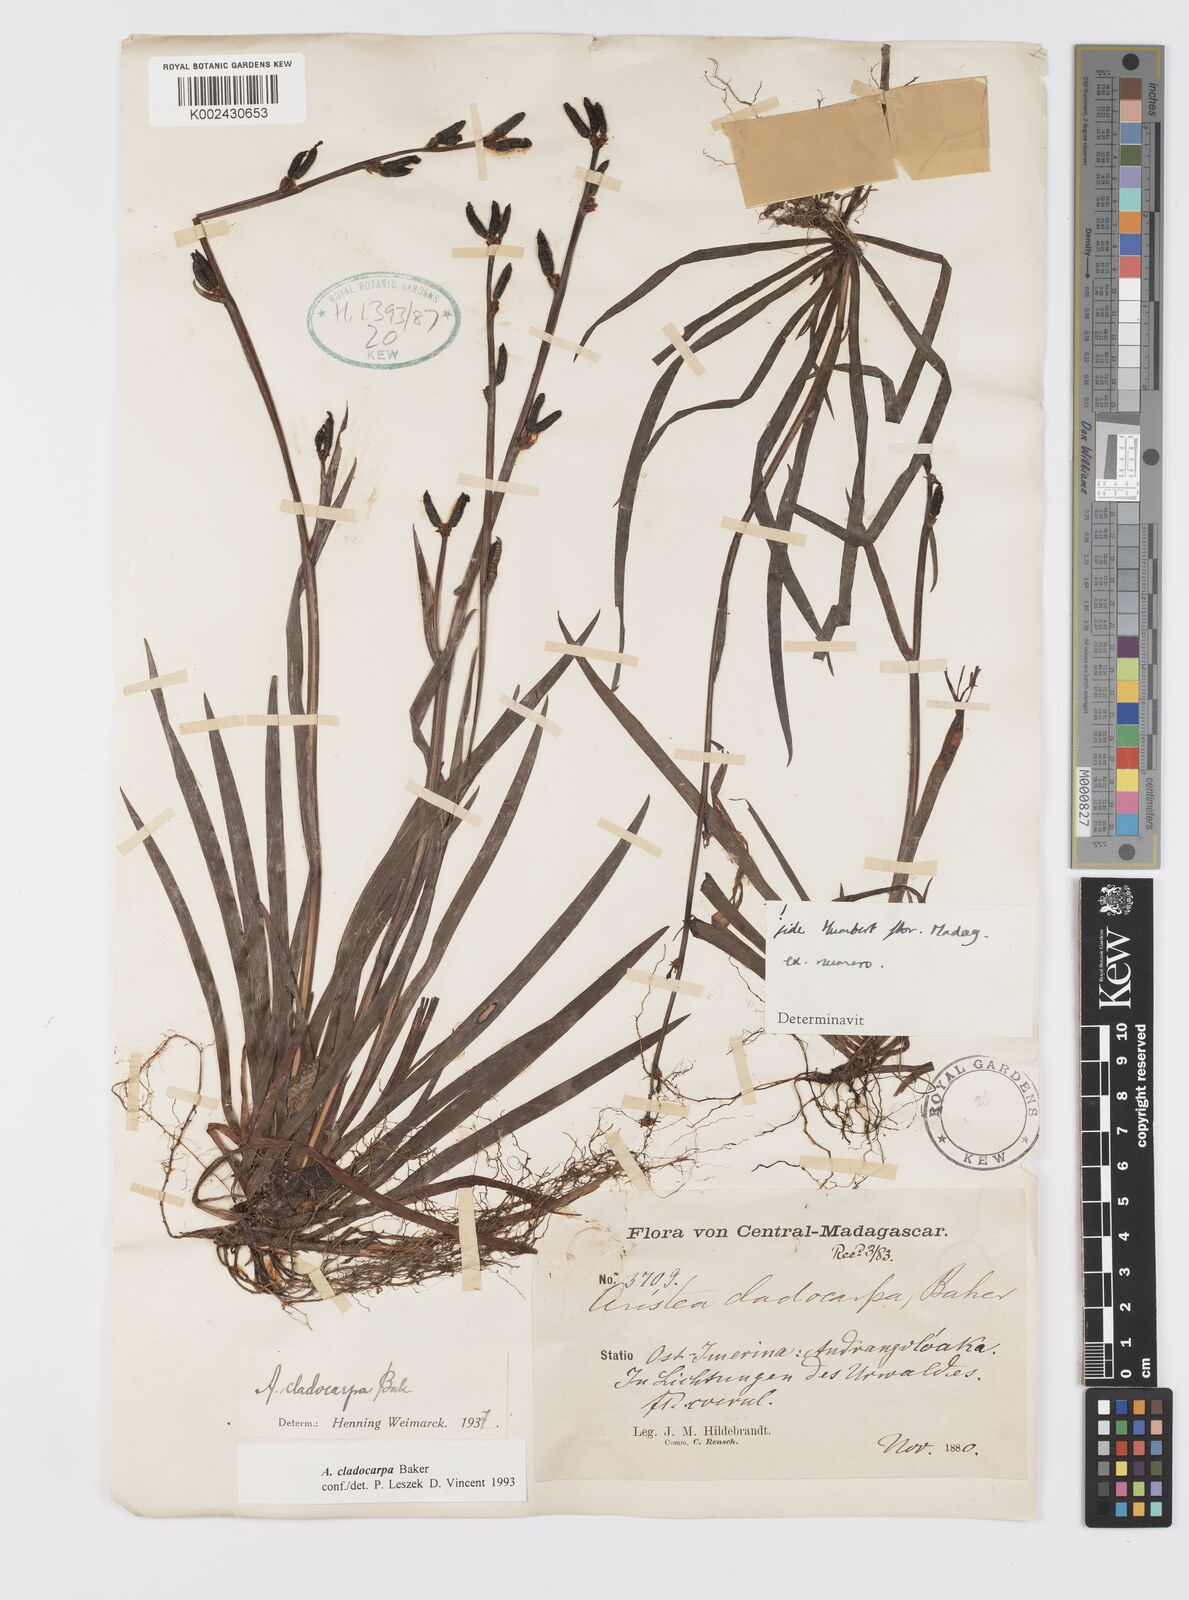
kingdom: Plantae
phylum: Tracheophyta
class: Liliopsida
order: Asparagales
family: Iridaceae
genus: Aristea
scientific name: Aristea cladocarpa
